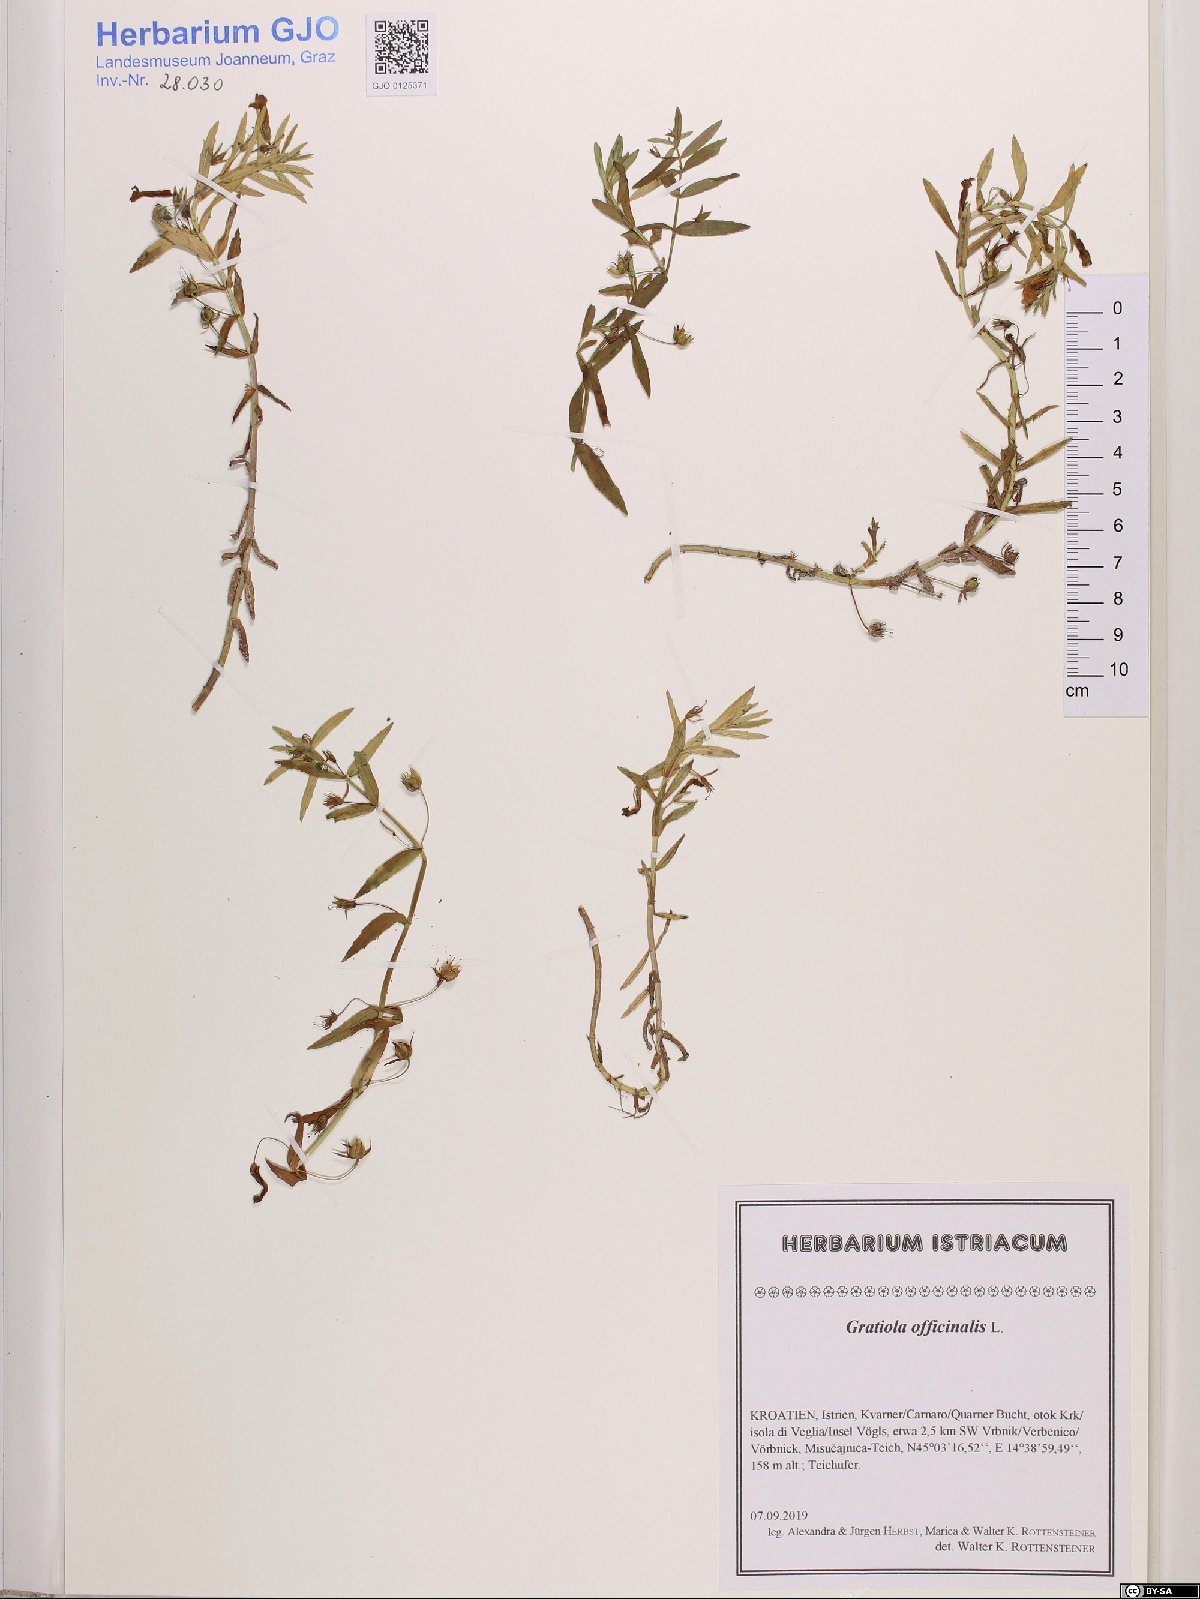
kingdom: Plantae
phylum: Tracheophyta
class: Magnoliopsida
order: Lamiales
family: Plantaginaceae
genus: Gratiola
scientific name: Gratiola officinalis
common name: Gratiola
